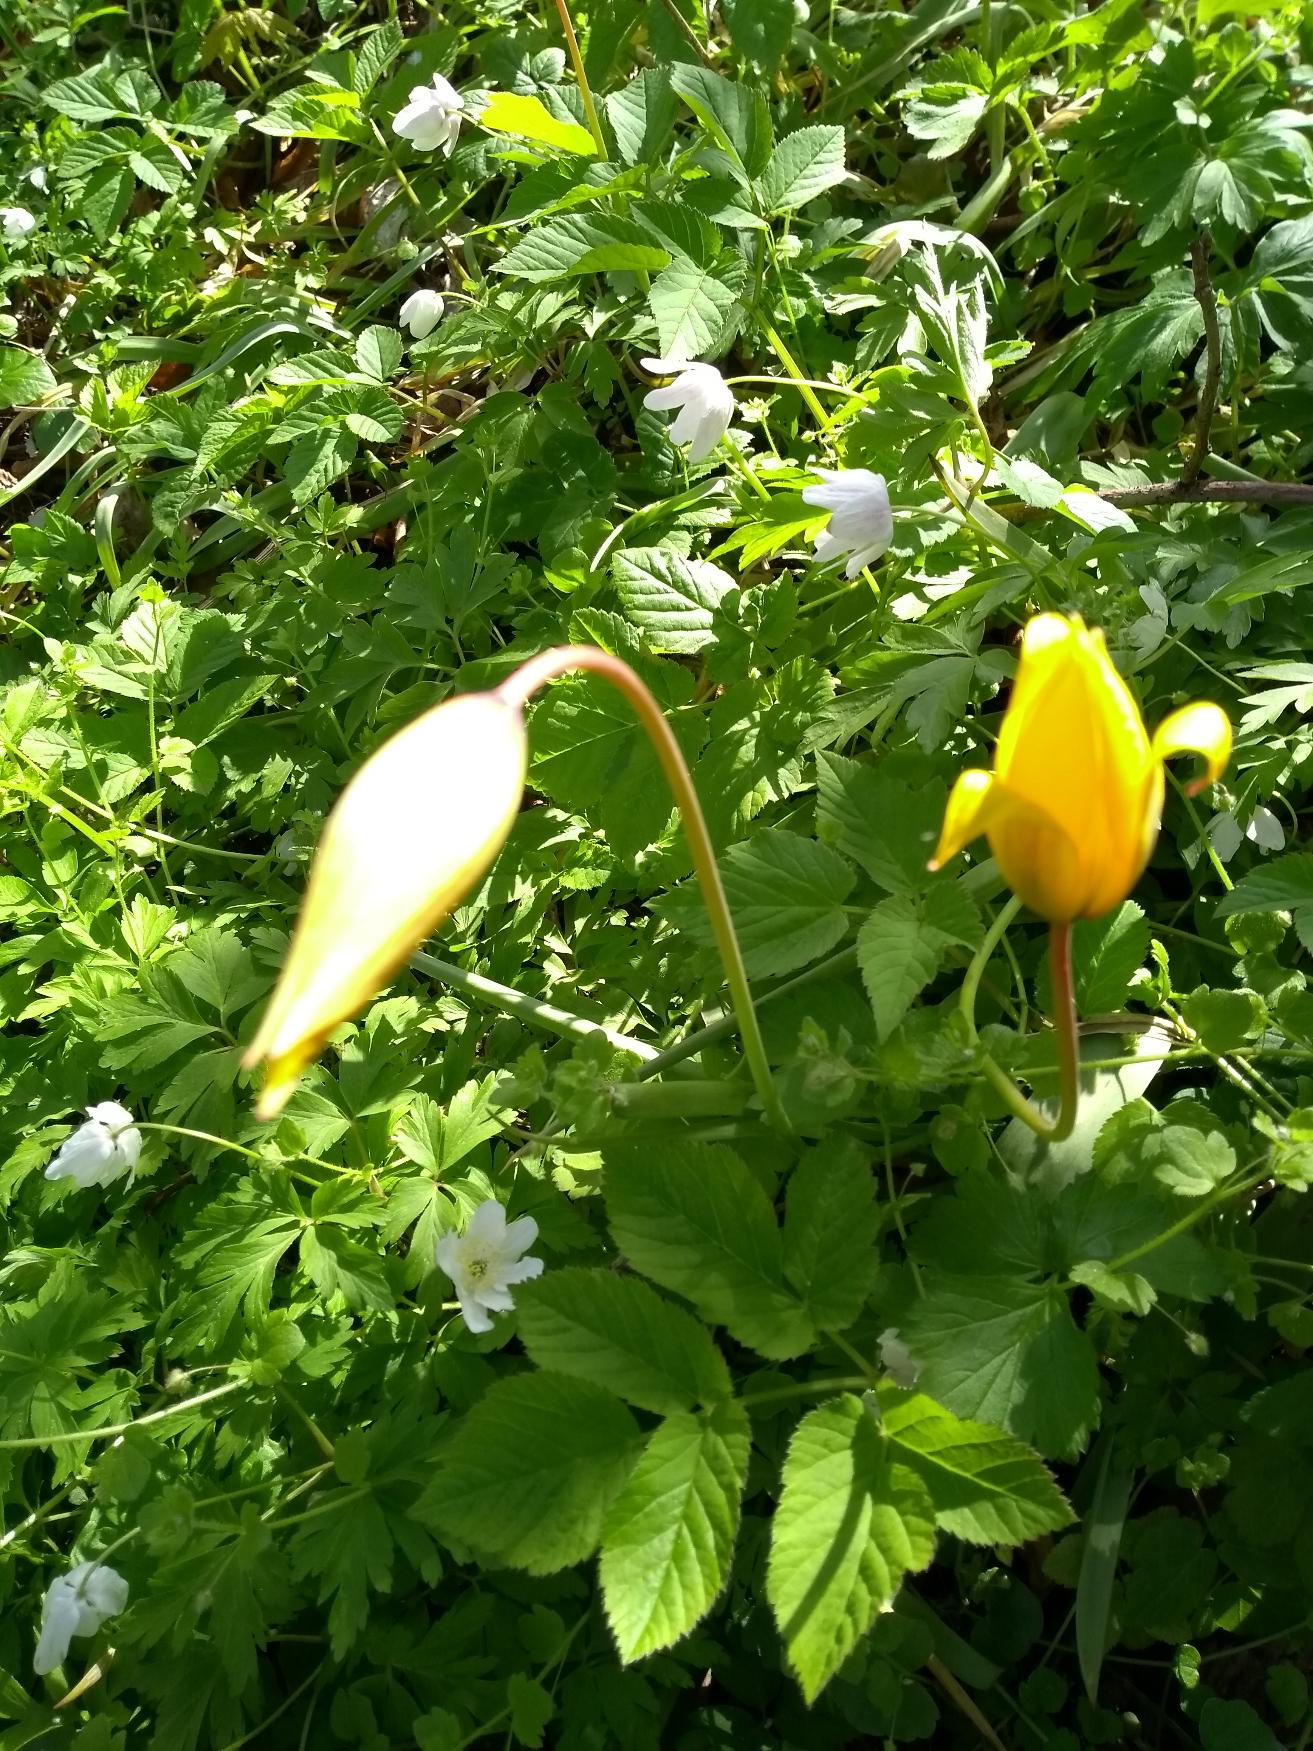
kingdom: Plantae
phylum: Tracheophyta
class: Liliopsida
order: Liliales
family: Liliaceae
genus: Tulipa
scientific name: Tulipa sylvestris
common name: Vild tulipan
